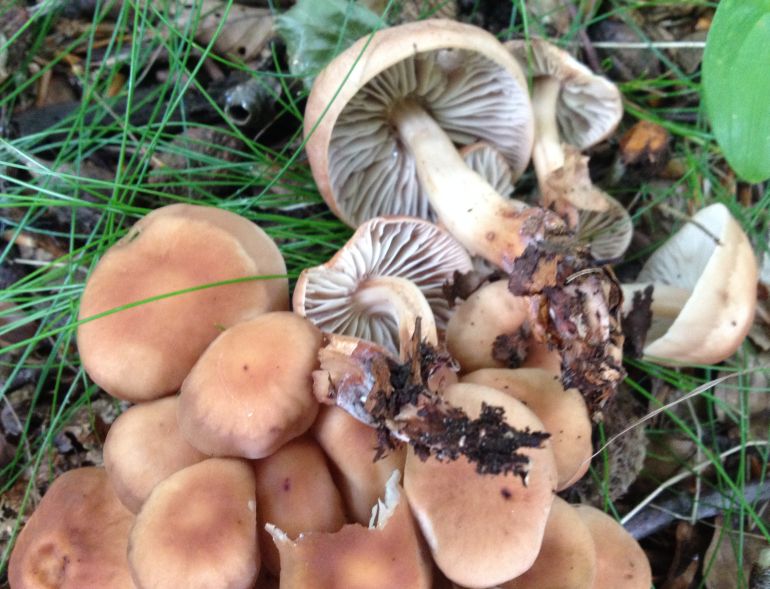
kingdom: Fungi
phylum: Basidiomycota
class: Agaricomycetes
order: Agaricales
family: Omphalotaceae
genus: Gymnopus
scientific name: Gymnopus fusipes
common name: tenstokket fladhat
